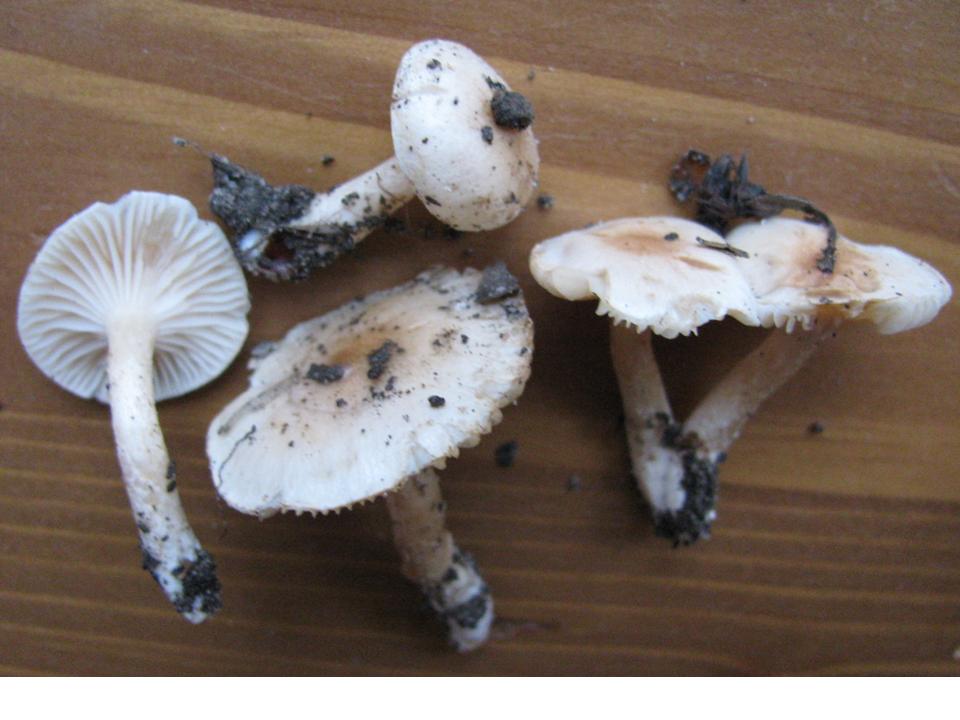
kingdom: Fungi
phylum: Basidiomycota
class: Agaricomycetes
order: Agaricales
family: Hygrophoraceae
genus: Hygrophorus
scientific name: Hygrophorus unicolor
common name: orangeøjet sneglehat
